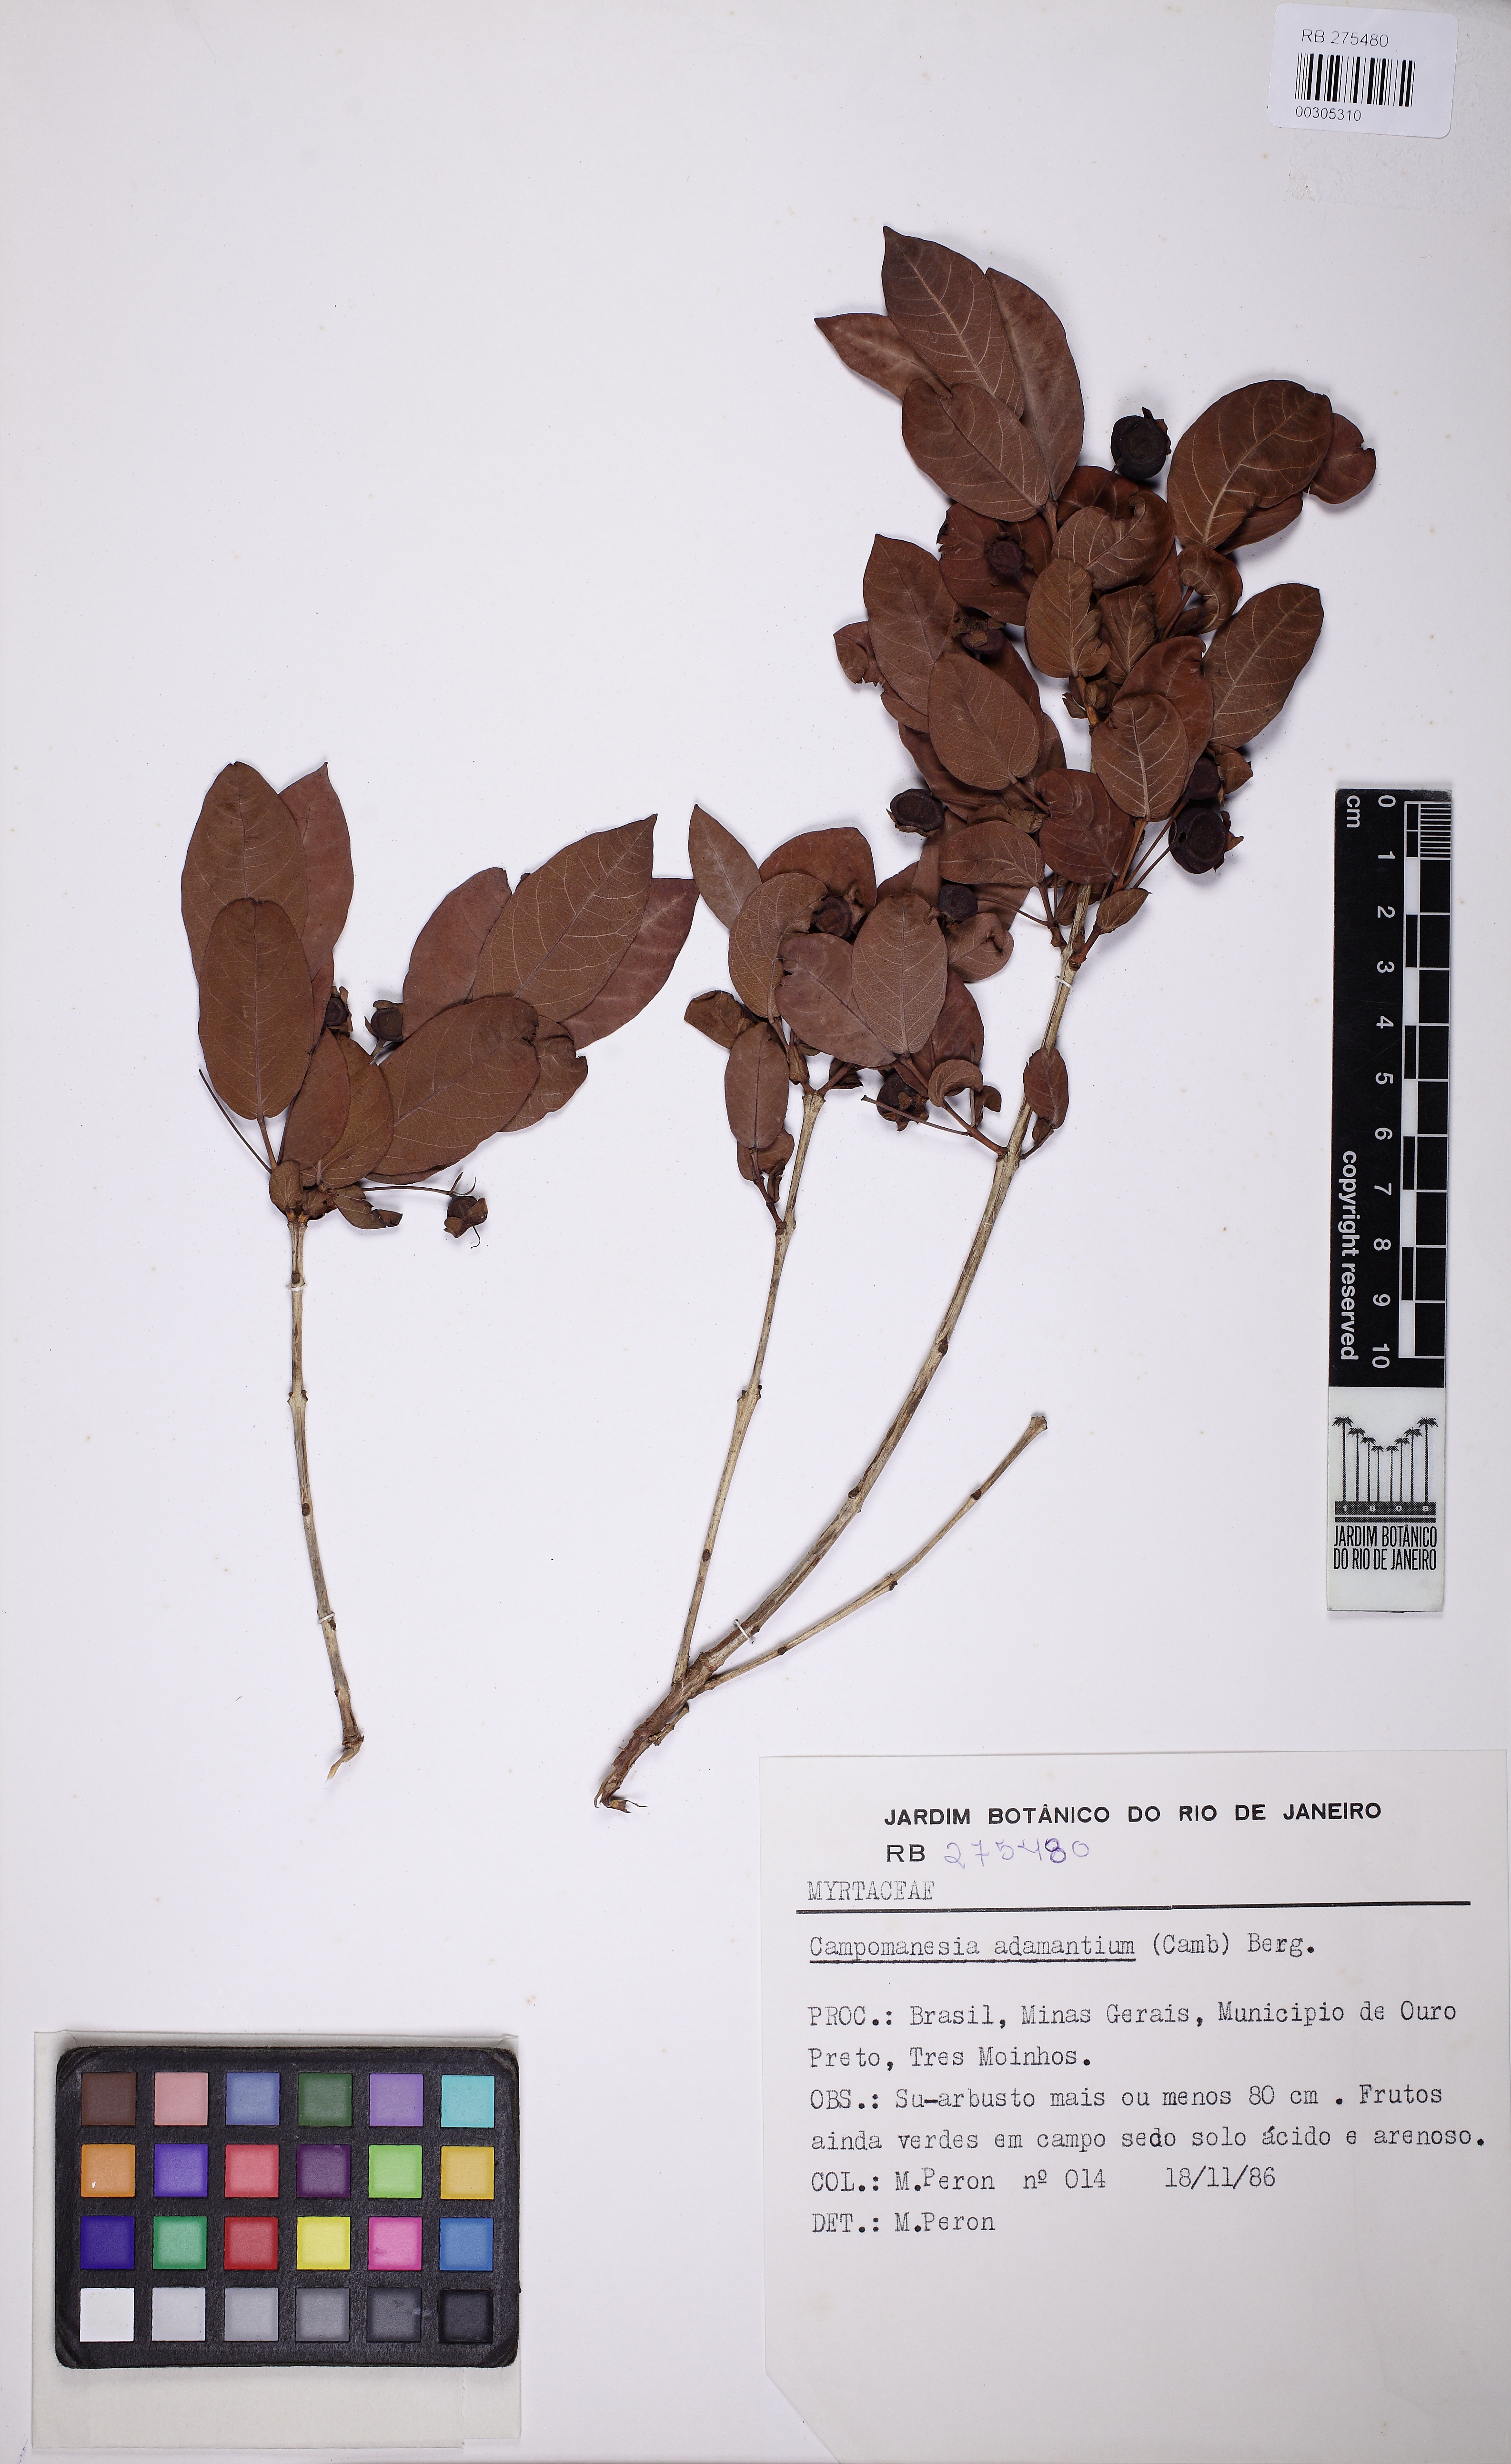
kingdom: Plantae
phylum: Tracheophyta
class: Magnoliopsida
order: Myrtales
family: Myrtaceae
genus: Campomanesia
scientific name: Campomanesia adamantium
